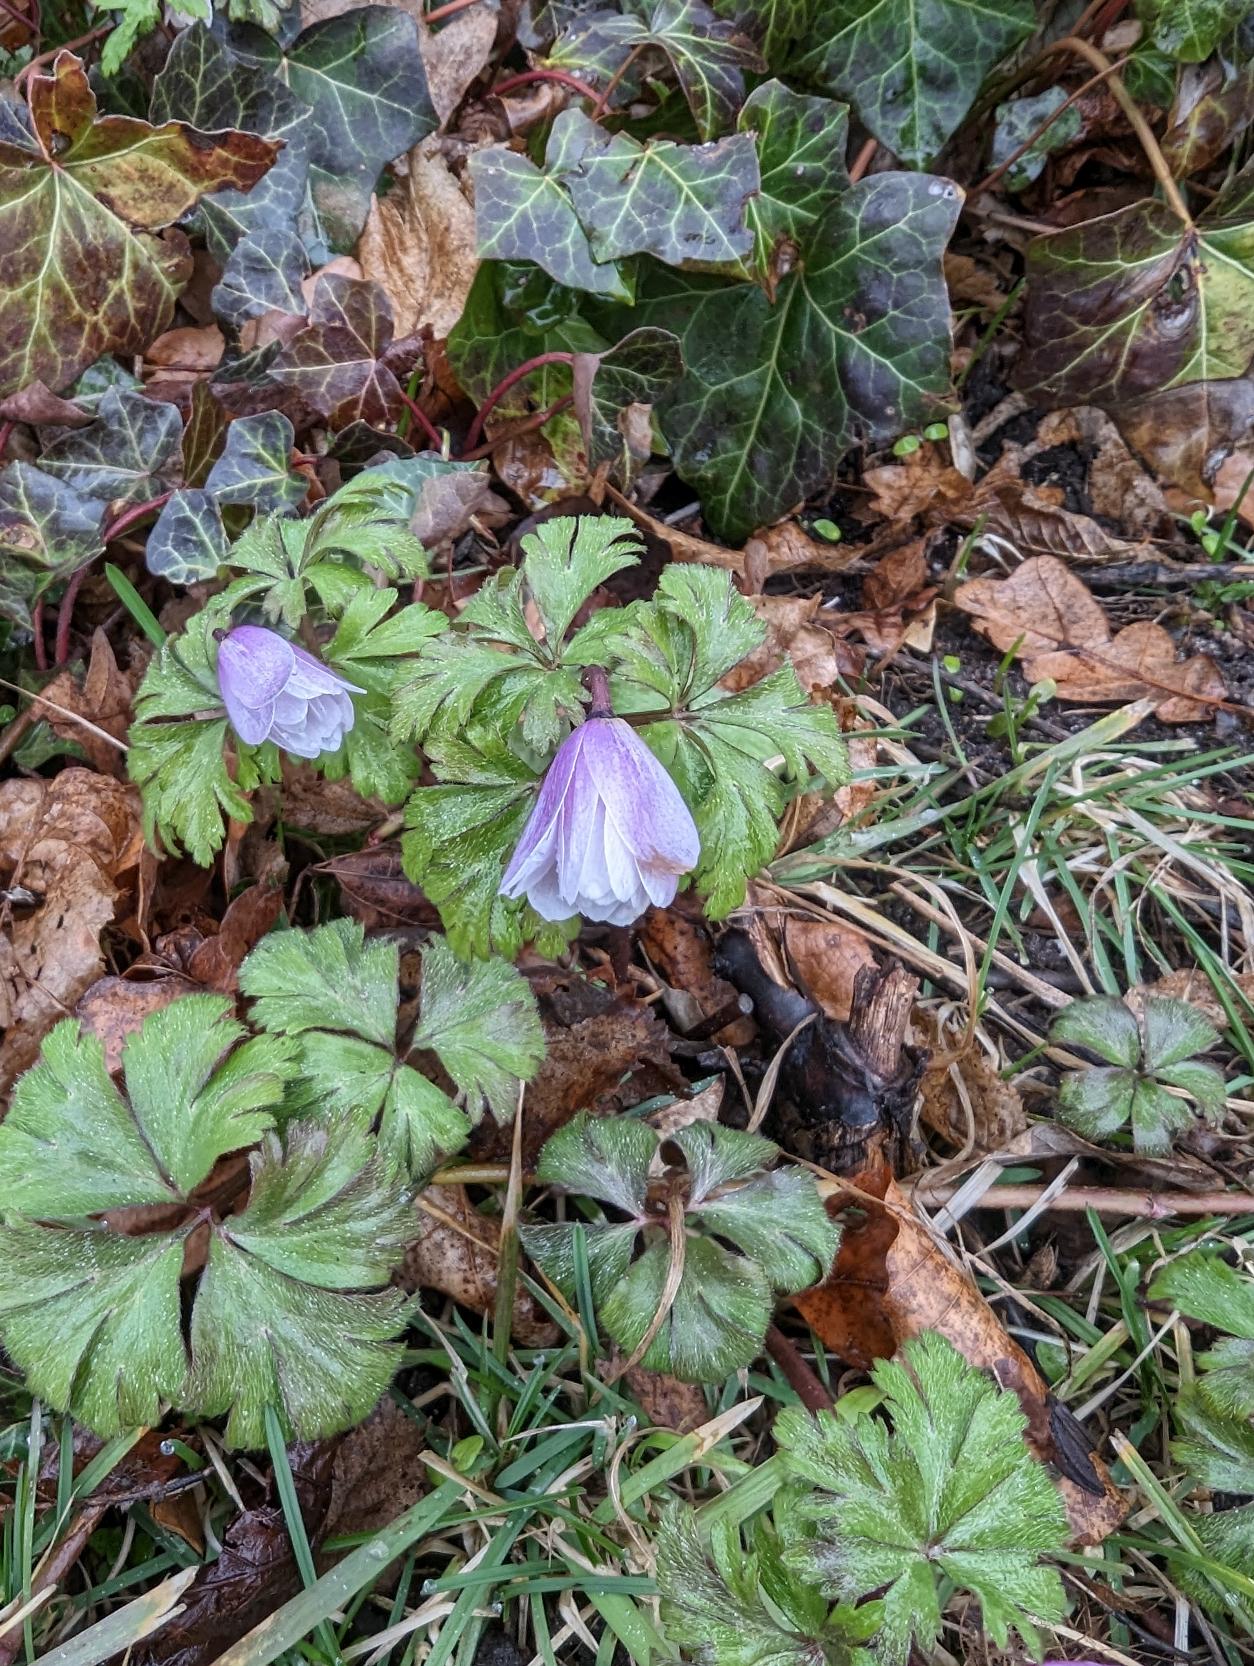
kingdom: Plantae
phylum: Tracheophyta
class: Magnoliopsida
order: Ranunculales
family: Ranunculaceae
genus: Anemone
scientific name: Anemone nemorosa
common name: Hvid anemone
